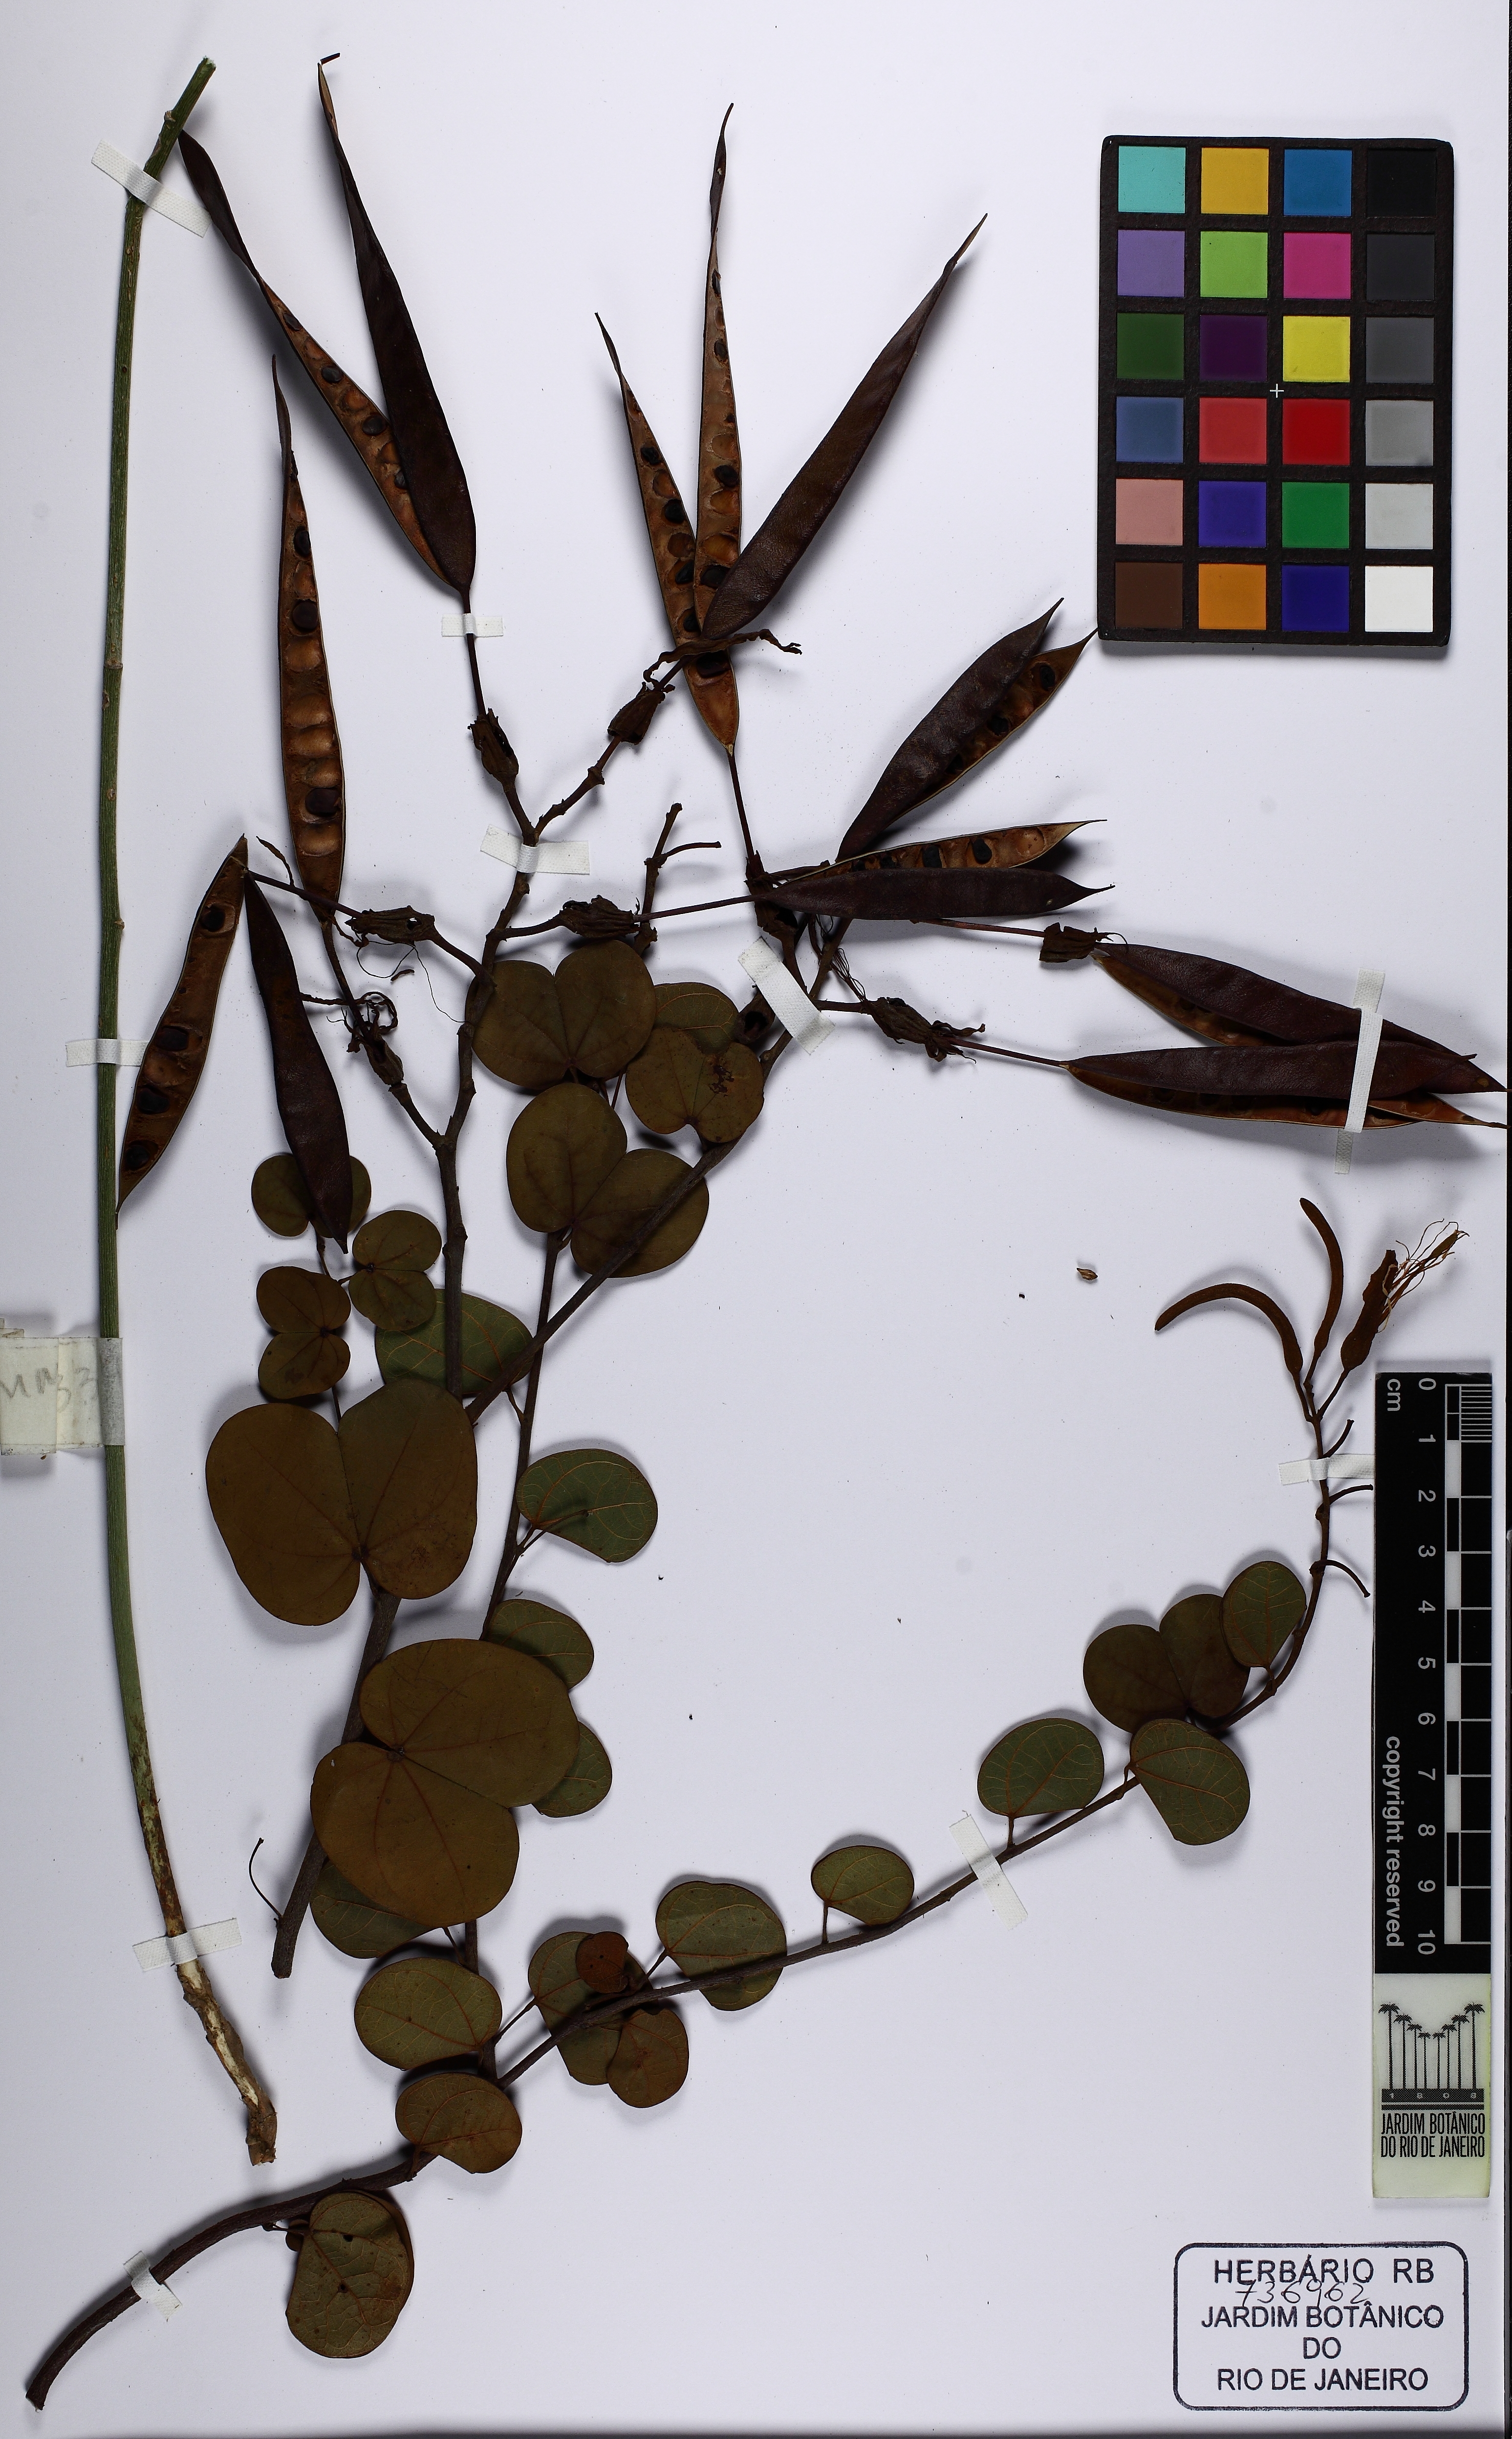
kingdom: Plantae
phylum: Tracheophyta
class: Magnoliopsida
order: Fabales
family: Fabaceae
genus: Bauhinia
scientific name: Bauhinia pulchella
